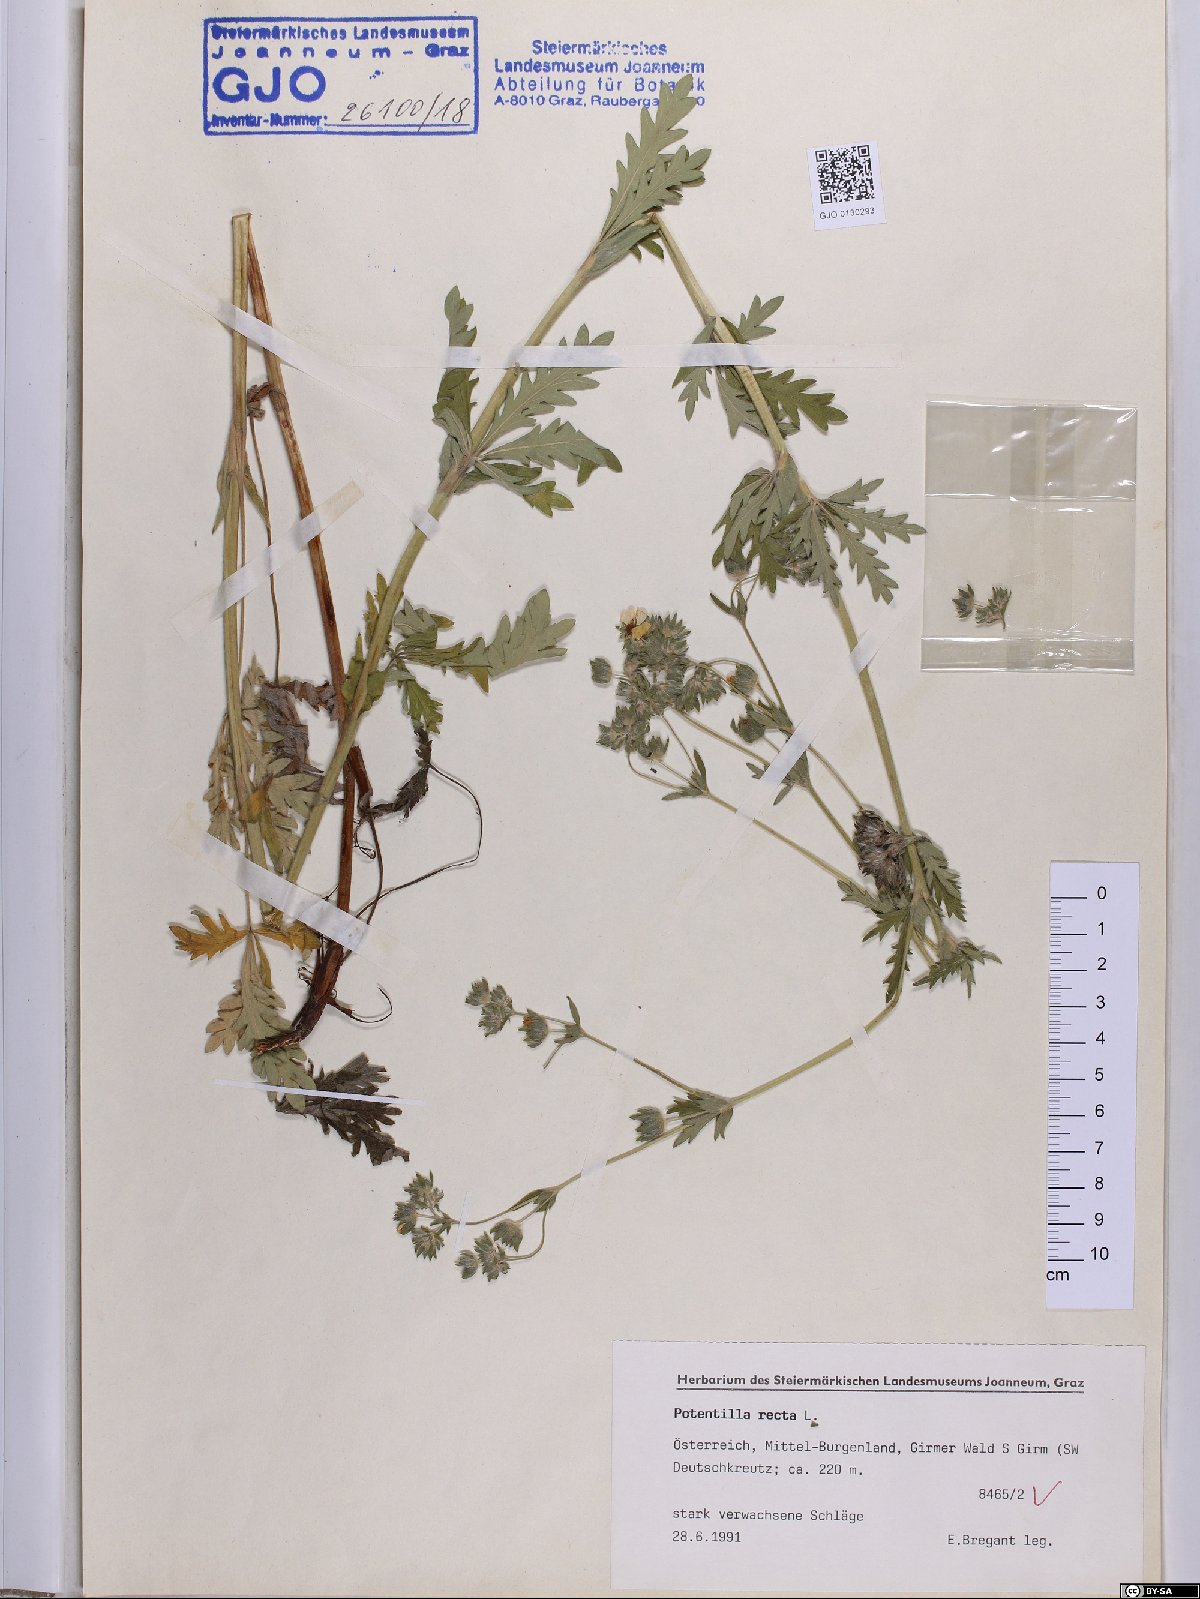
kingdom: Plantae
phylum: Tracheophyta
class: Magnoliopsida
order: Rosales
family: Rosaceae
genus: Potentilla
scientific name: Potentilla recta
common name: Sulphur cinquefoil
